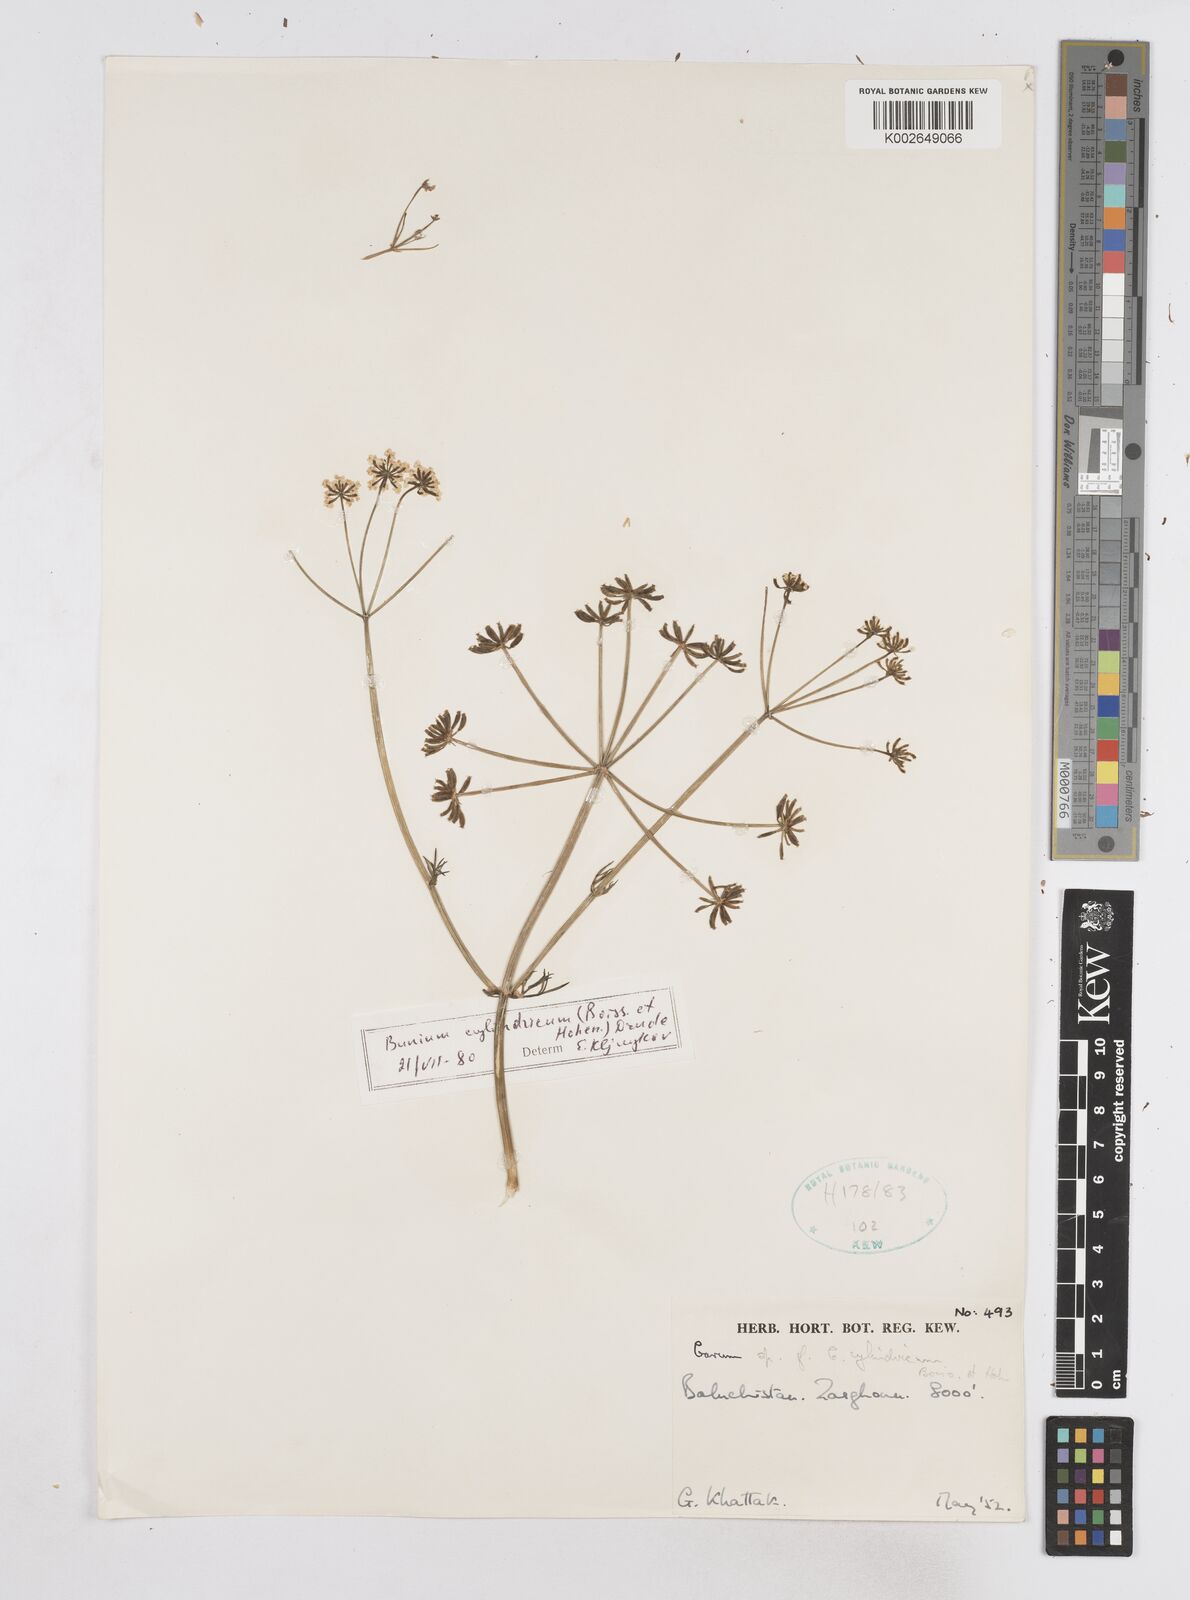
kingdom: Plantae
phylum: Tracheophyta
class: Magnoliopsida
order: Apiales
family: Apiaceae
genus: Elwendia
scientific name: Elwendia cylindrica
